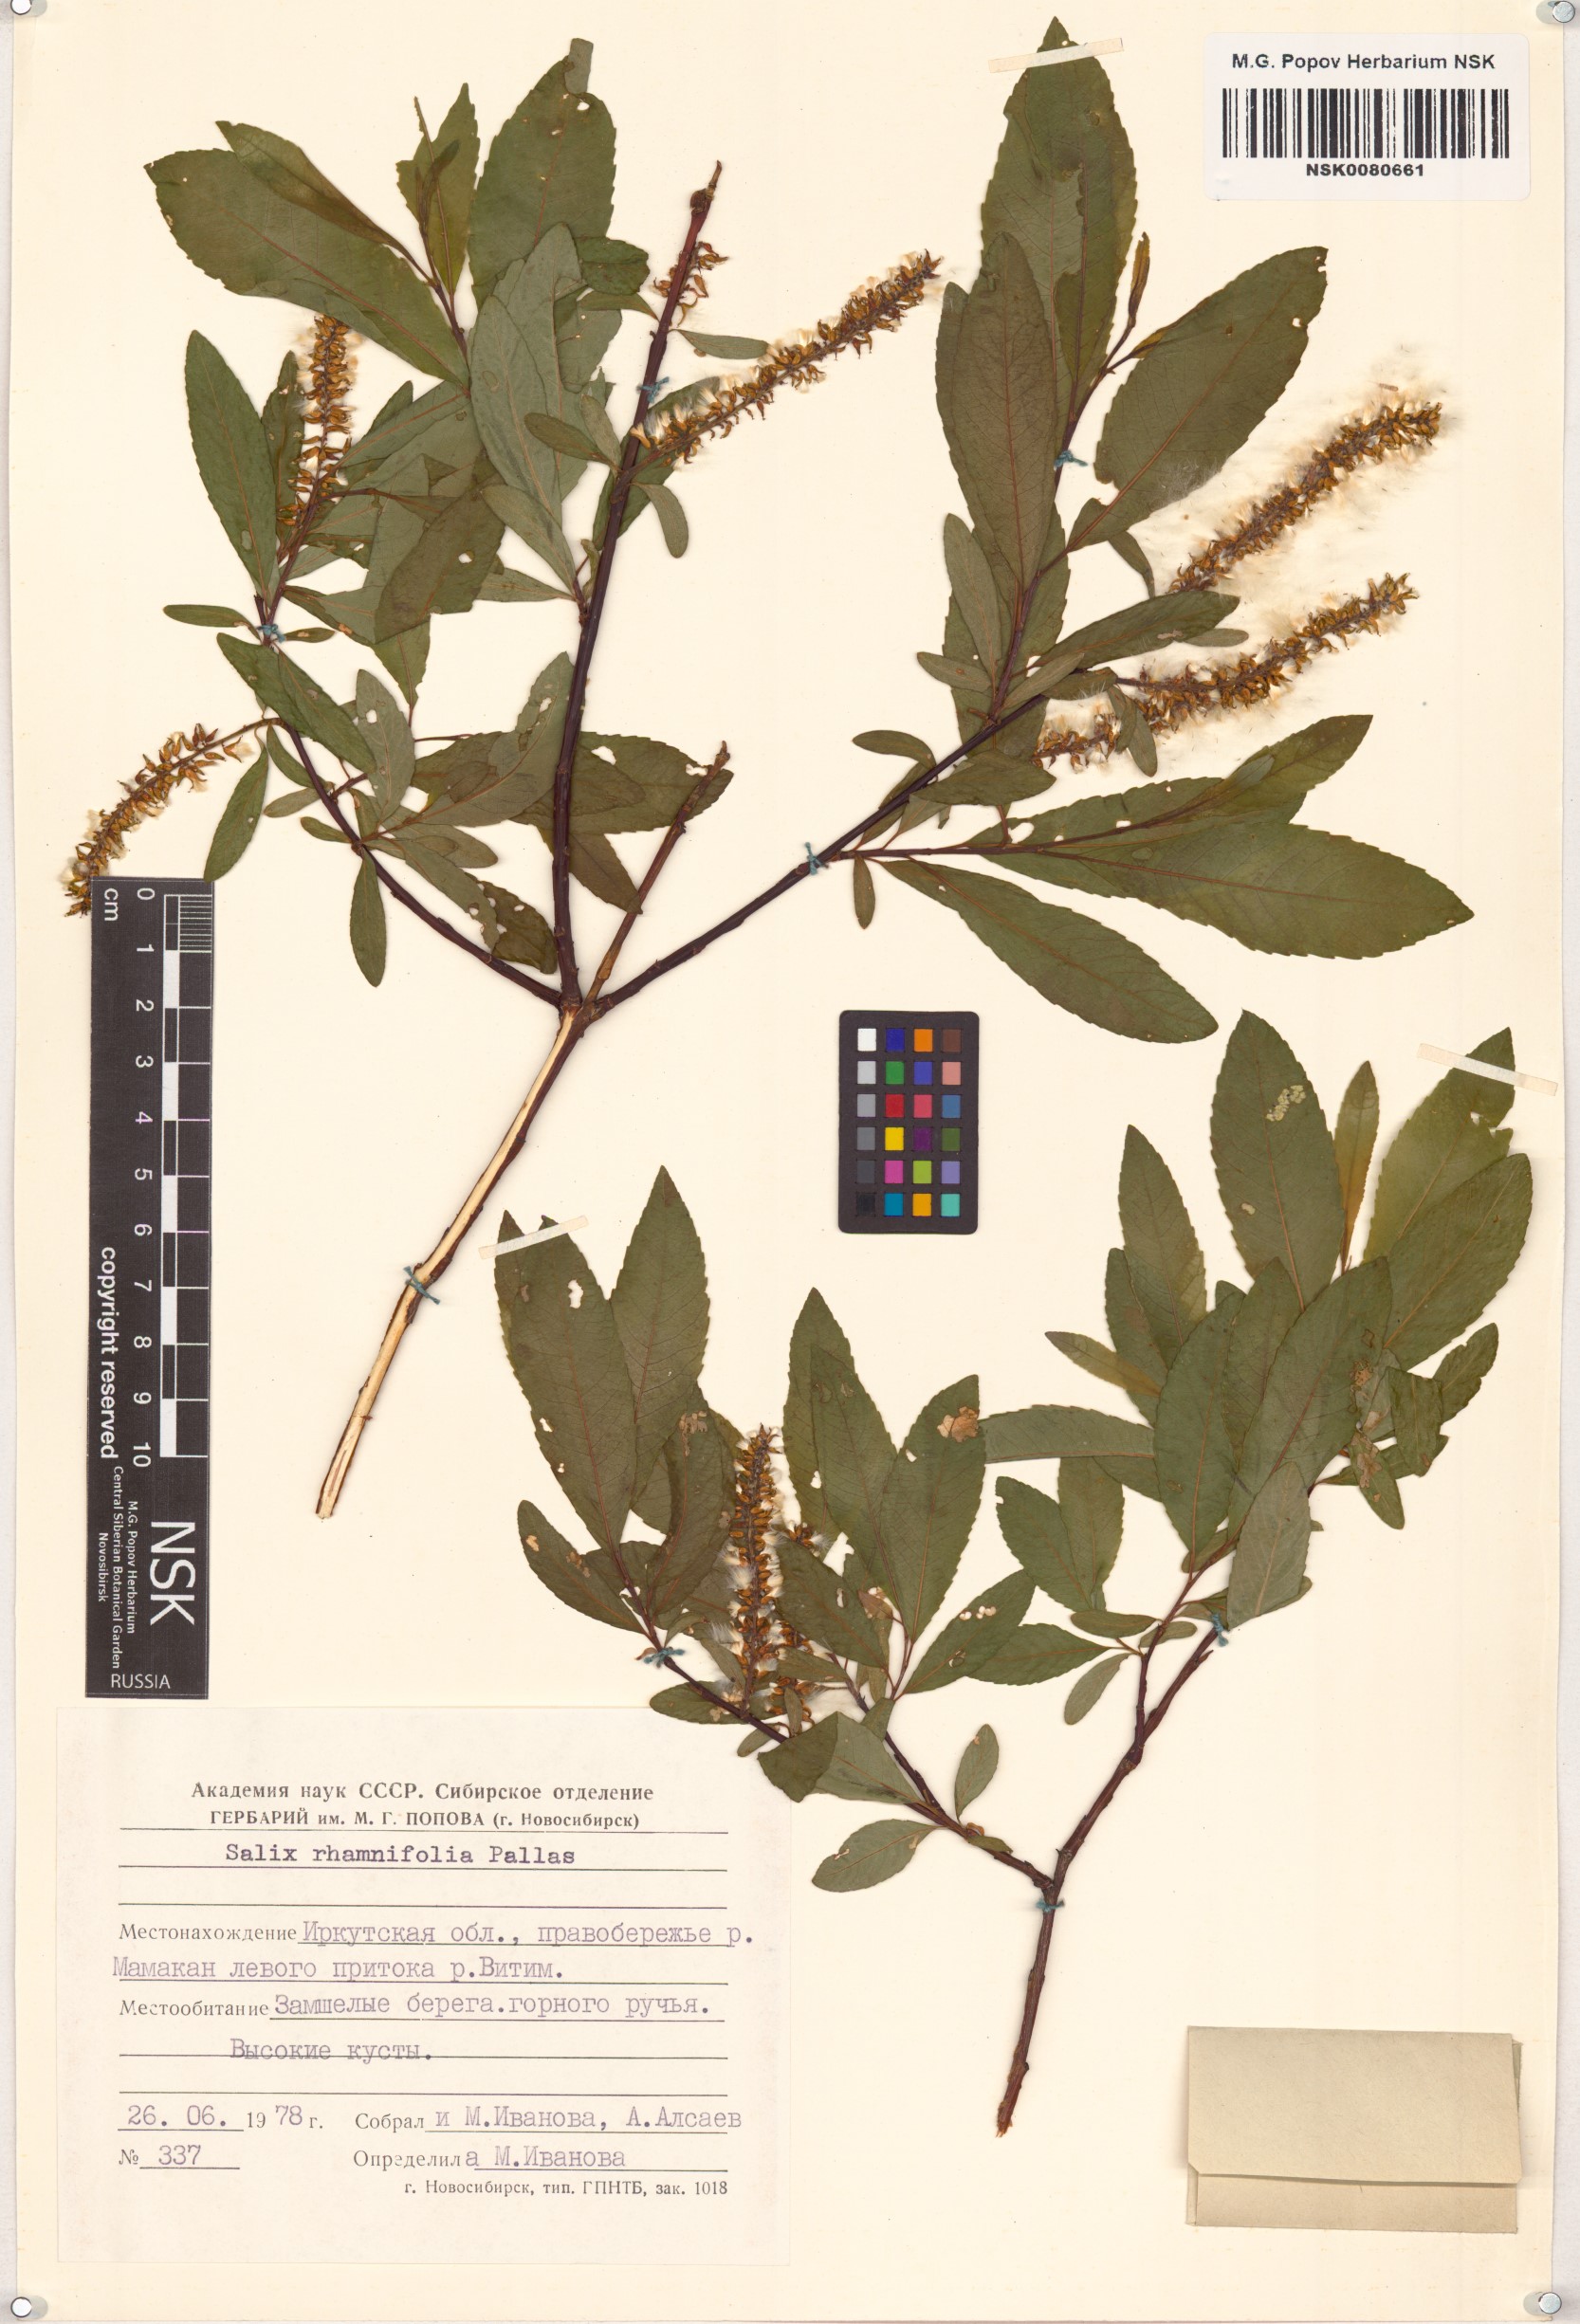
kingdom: Plantae
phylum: Tracheophyta
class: Magnoliopsida
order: Malpighiales
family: Salicaceae
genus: Salix
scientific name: Salix rhamnifolia
